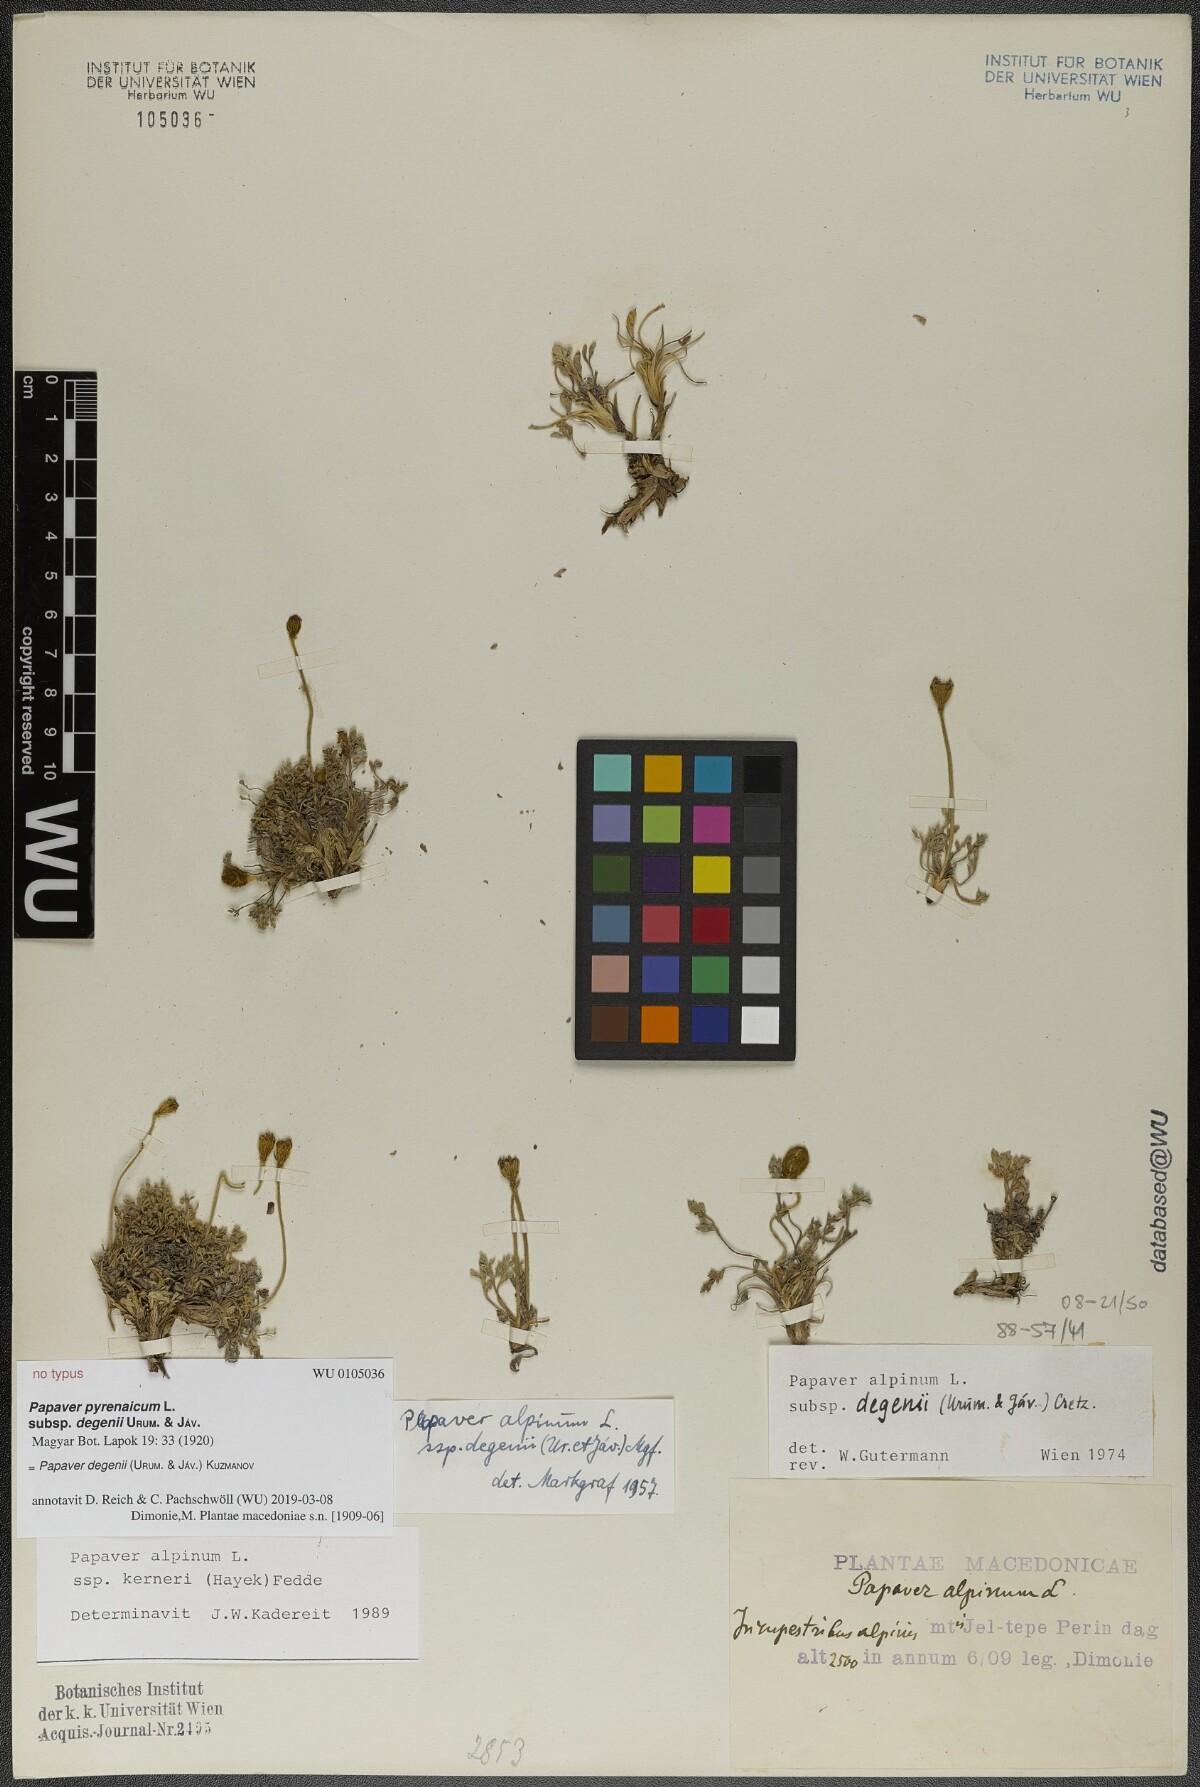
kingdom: Plantae
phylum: Tracheophyta
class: Magnoliopsida
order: Ranunculales
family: Papaveraceae
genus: Papaver
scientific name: Papaver alpinum
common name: Austrian poppy
